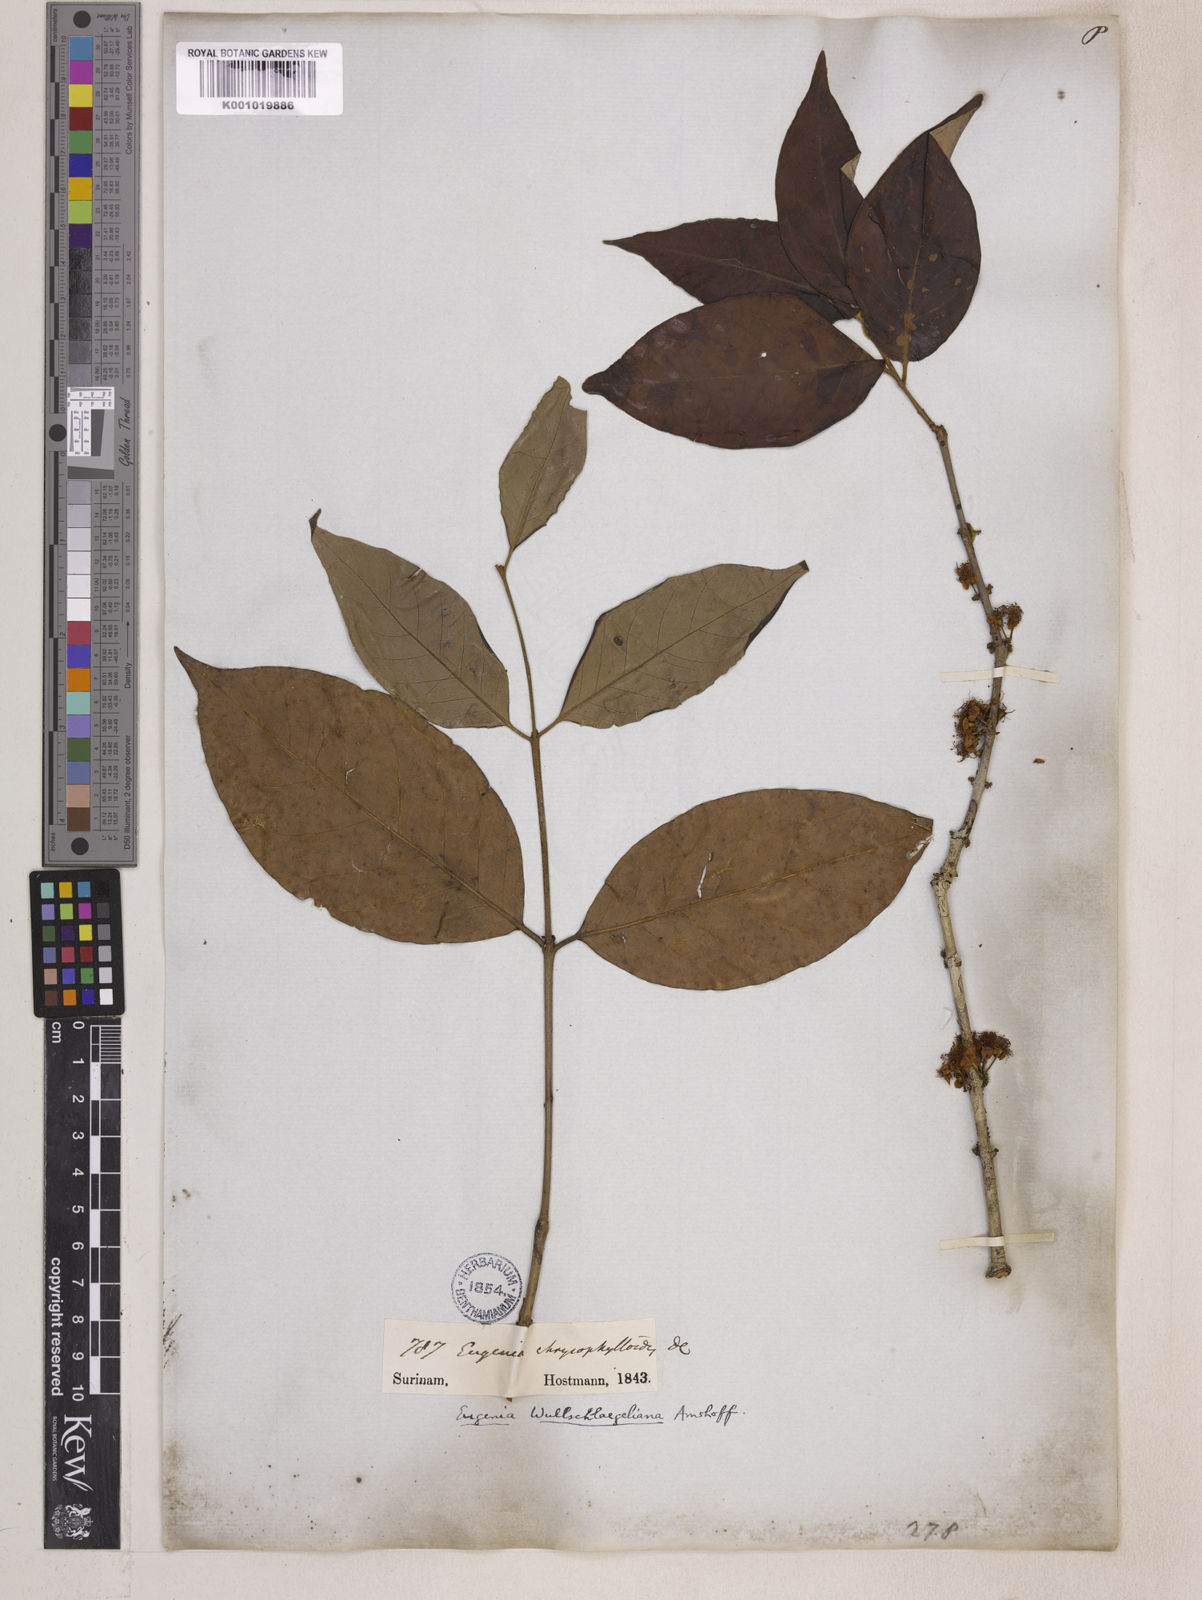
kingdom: Plantae
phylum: Tracheophyta
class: Magnoliopsida
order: Myrtales
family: Myrtaceae
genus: Eugenia
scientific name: Eugenia wullschlaegeliana
